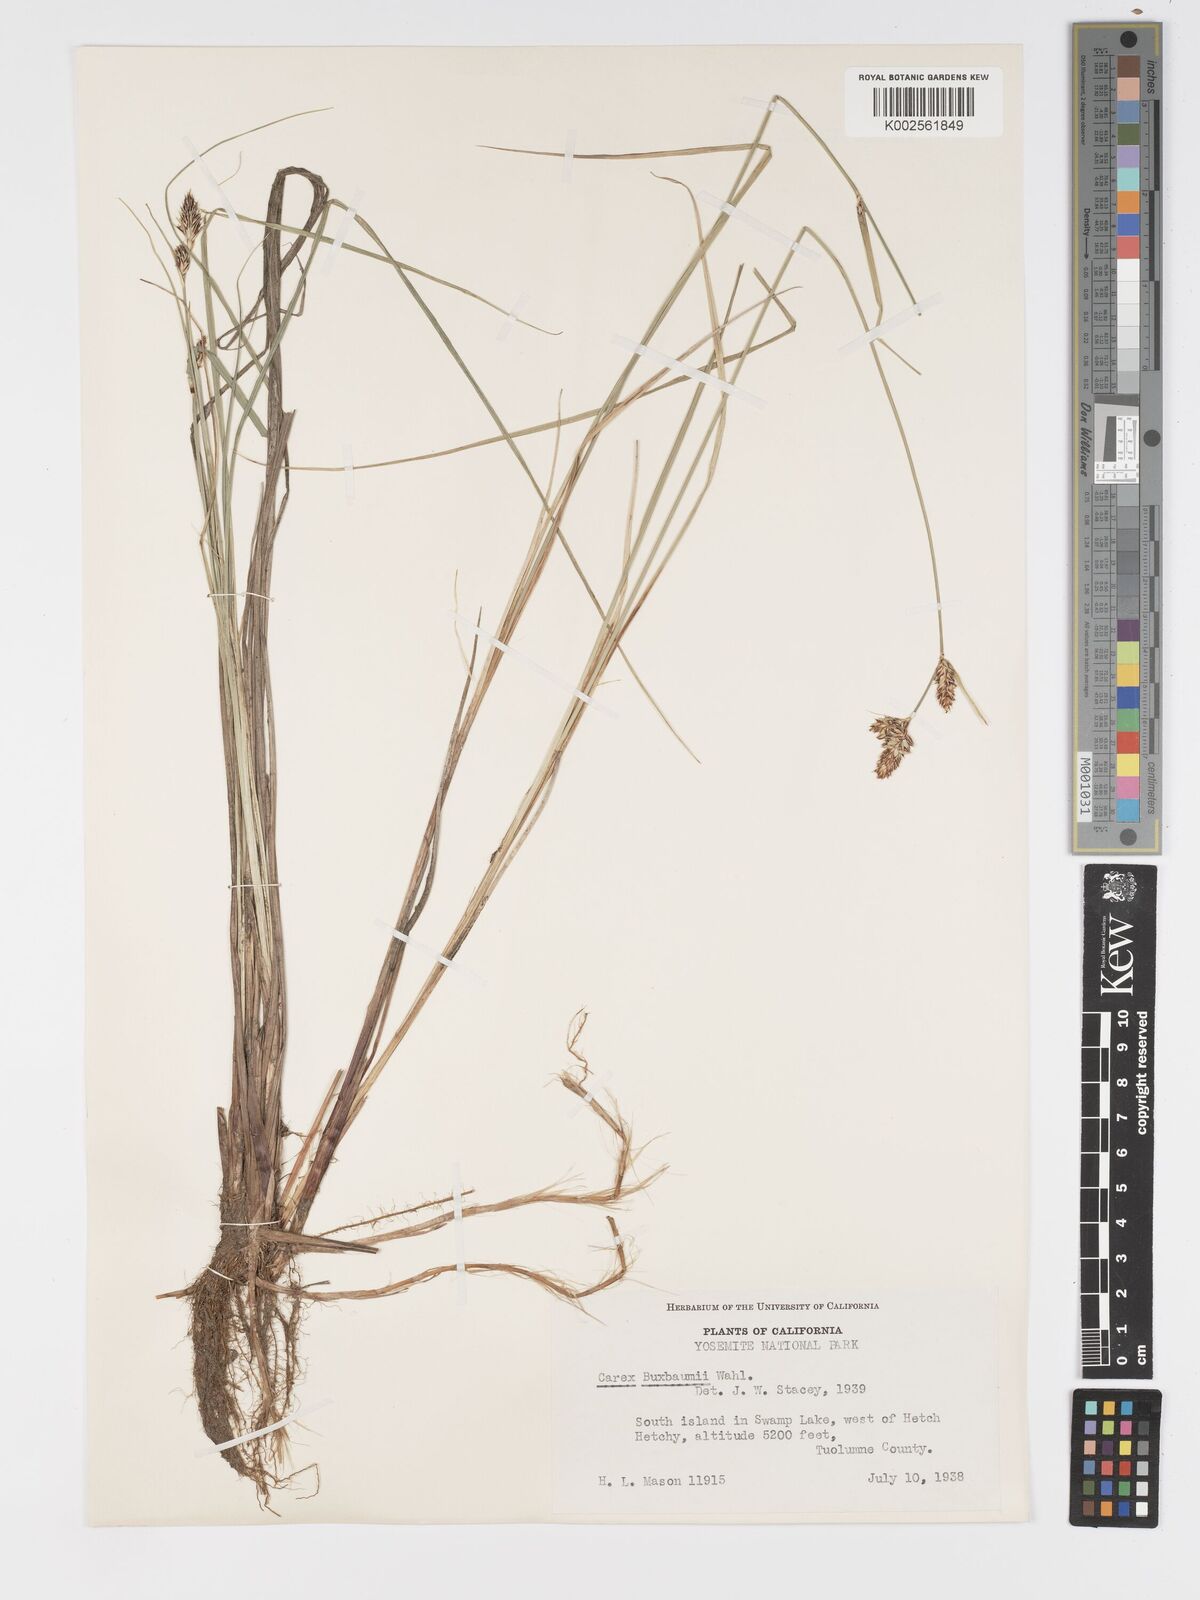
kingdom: Plantae
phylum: Tracheophyta
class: Liliopsida
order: Poales
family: Cyperaceae
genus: Carex
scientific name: Carex buxbaumii
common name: Club sedge
